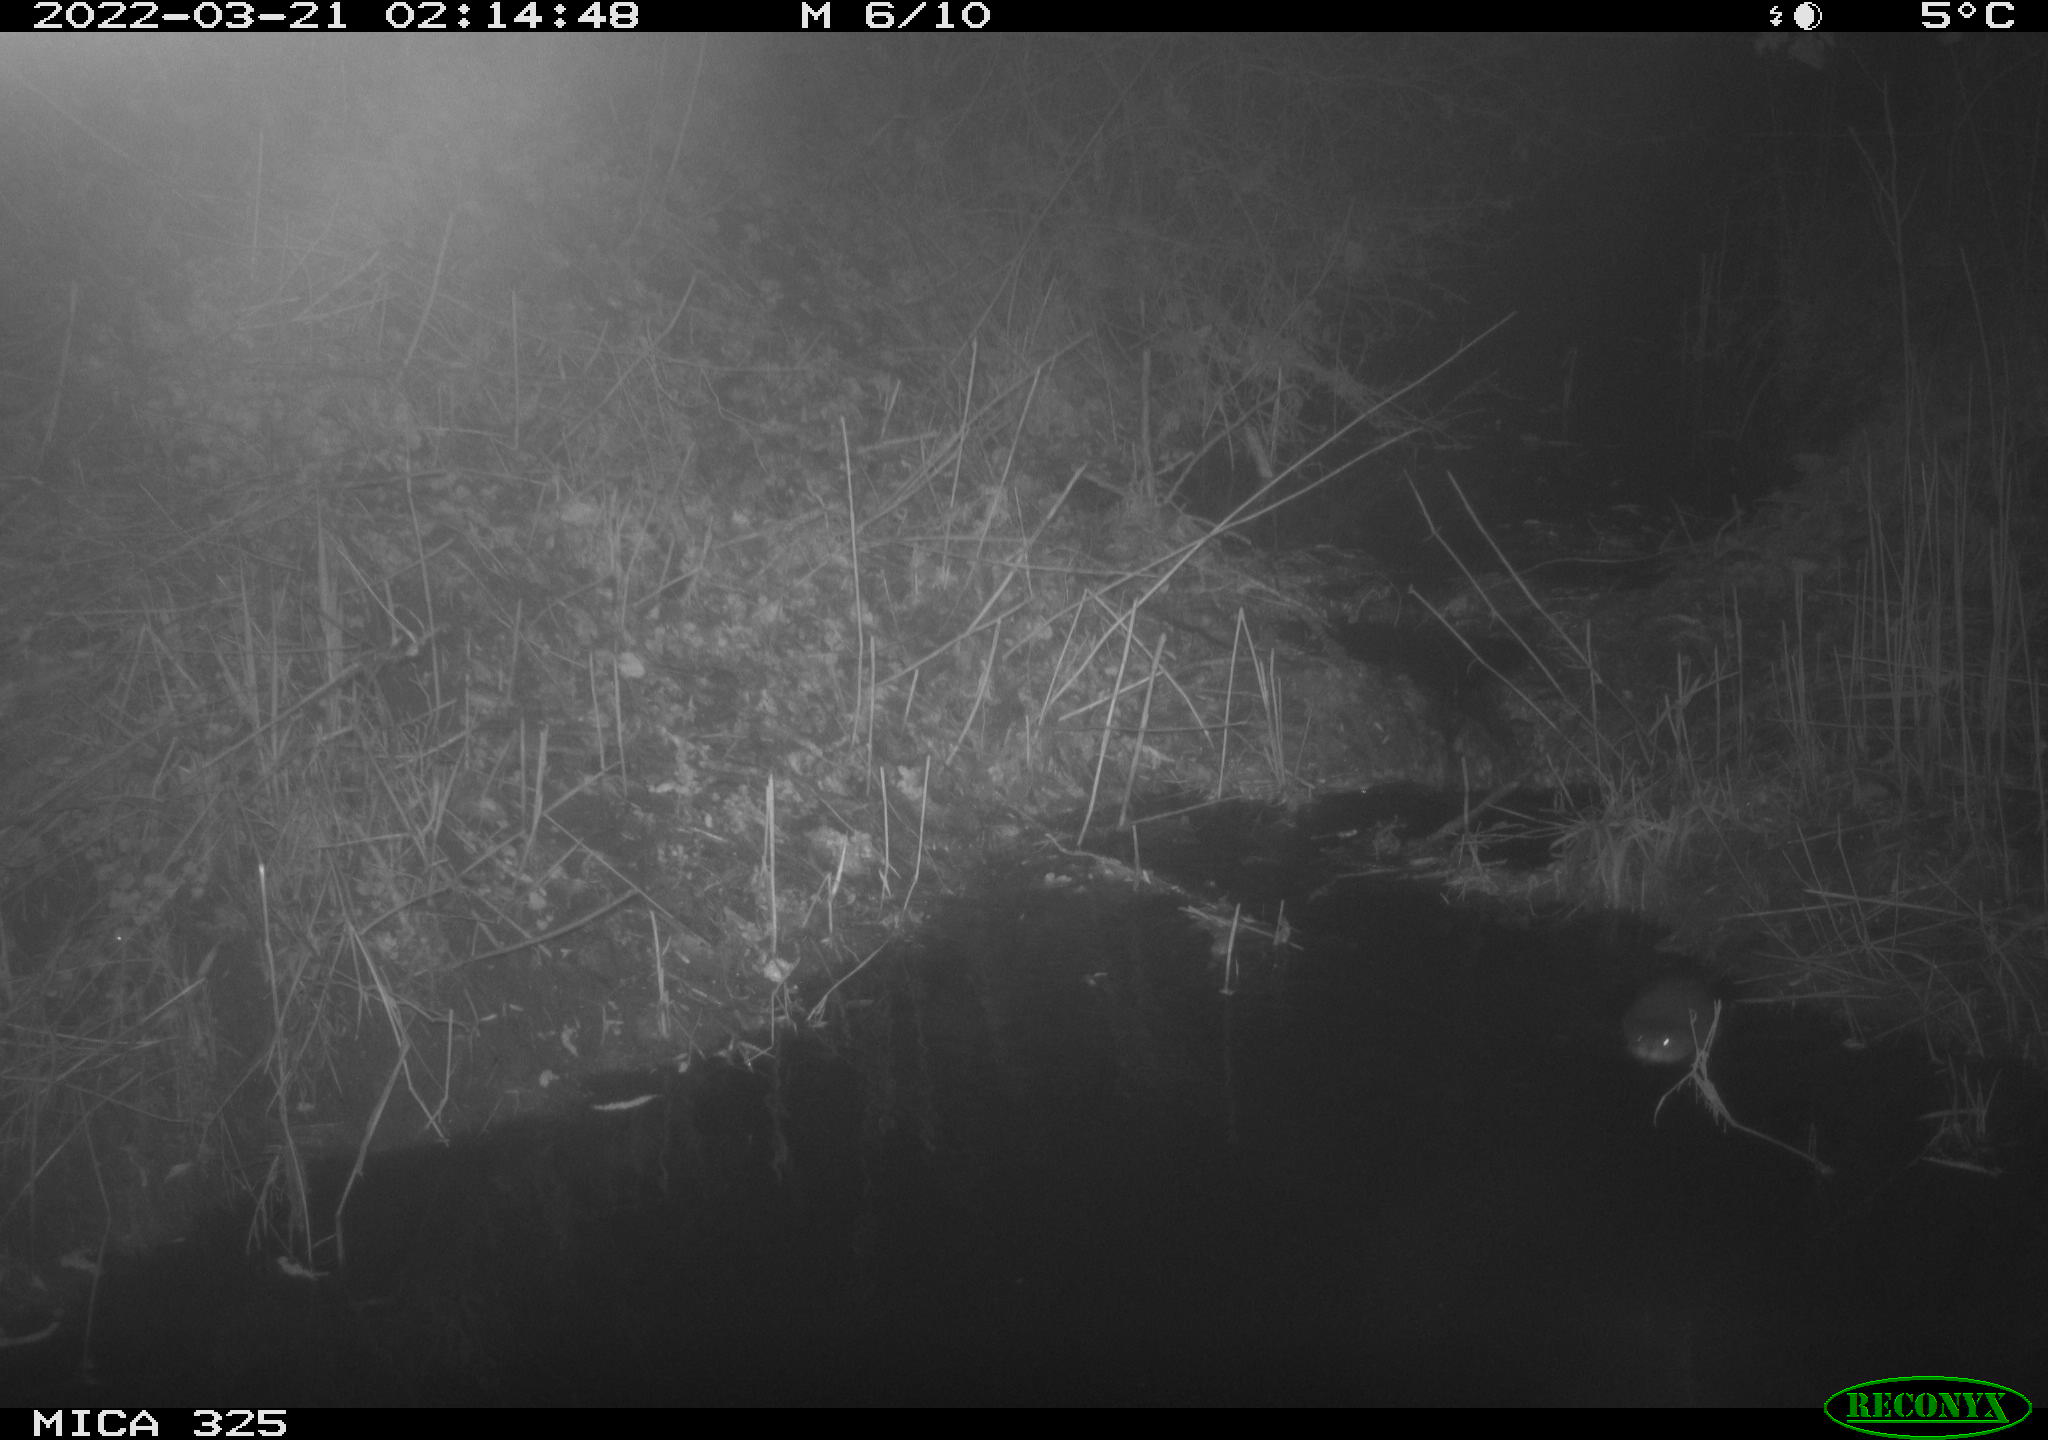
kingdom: Animalia
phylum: Chordata
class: Mammalia
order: Rodentia
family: Cricetidae
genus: Ondatra
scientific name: Ondatra zibethicus
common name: Muskrat
